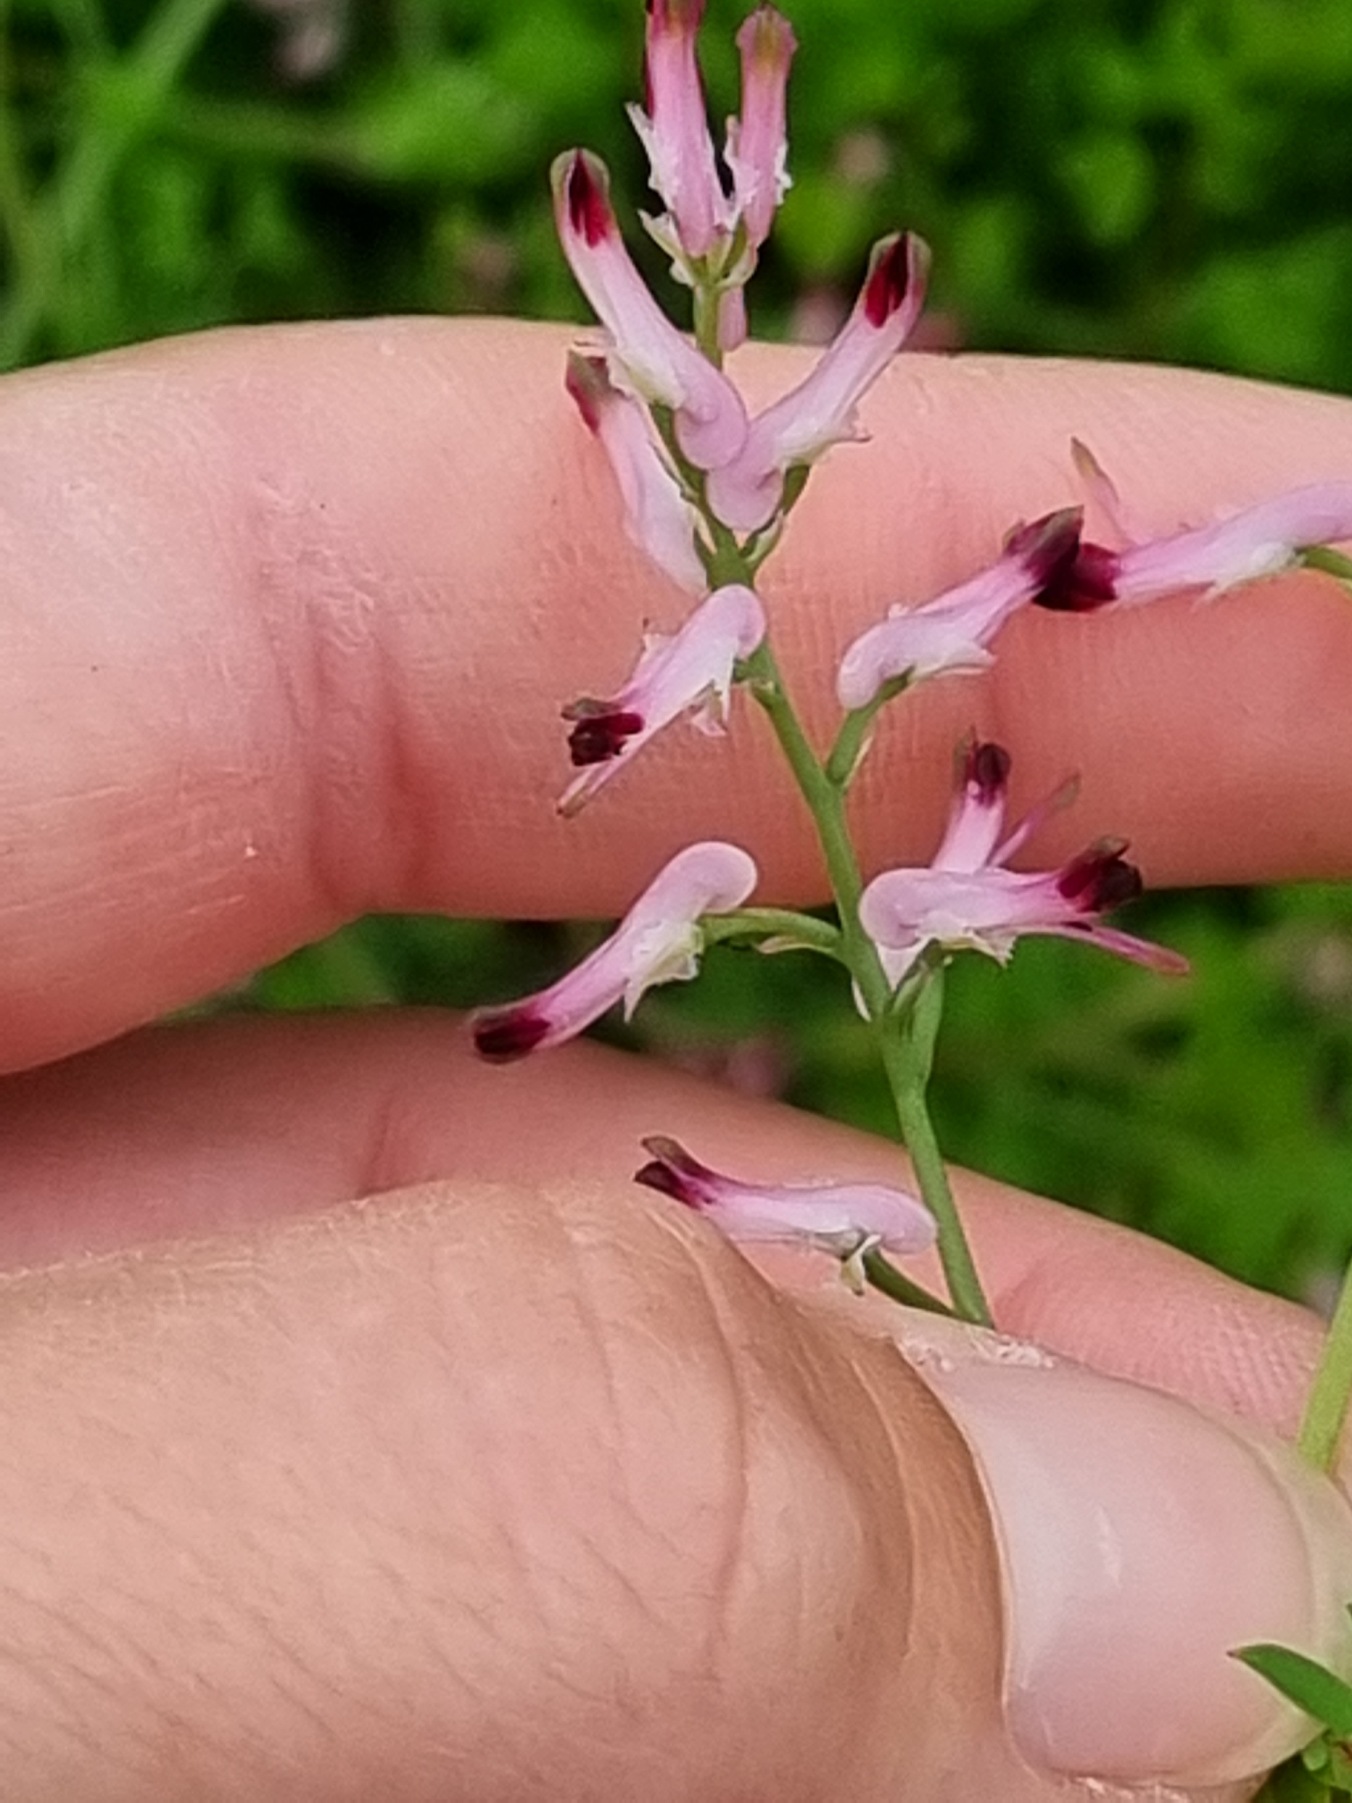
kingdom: Plantae
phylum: Tracheophyta
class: Magnoliopsida
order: Ranunculales
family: Papaveraceae
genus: Fumaria
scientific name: Fumaria muralis
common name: Mur-jordrøg
